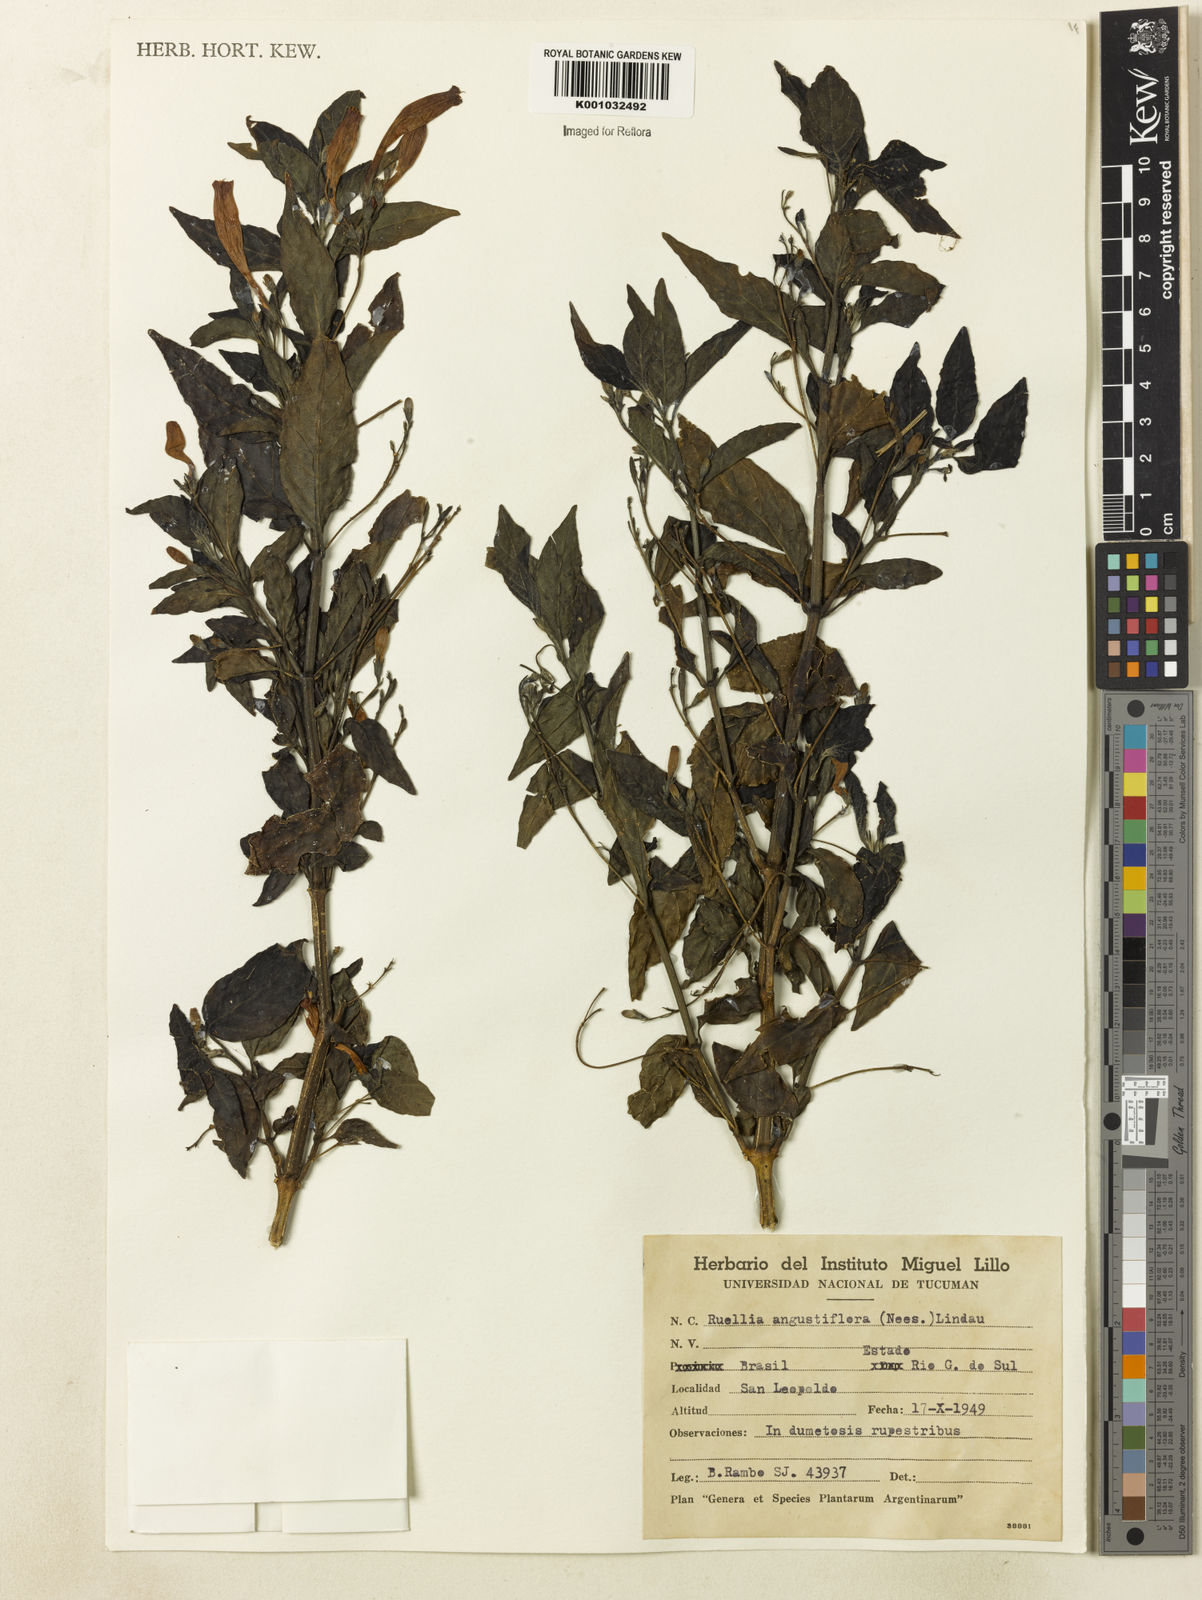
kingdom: Plantae
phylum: Tracheophyta
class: Magnoliopsida
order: Lamiales
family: Acanthaceae
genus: Ruellia
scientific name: Ruellia angustiflora
